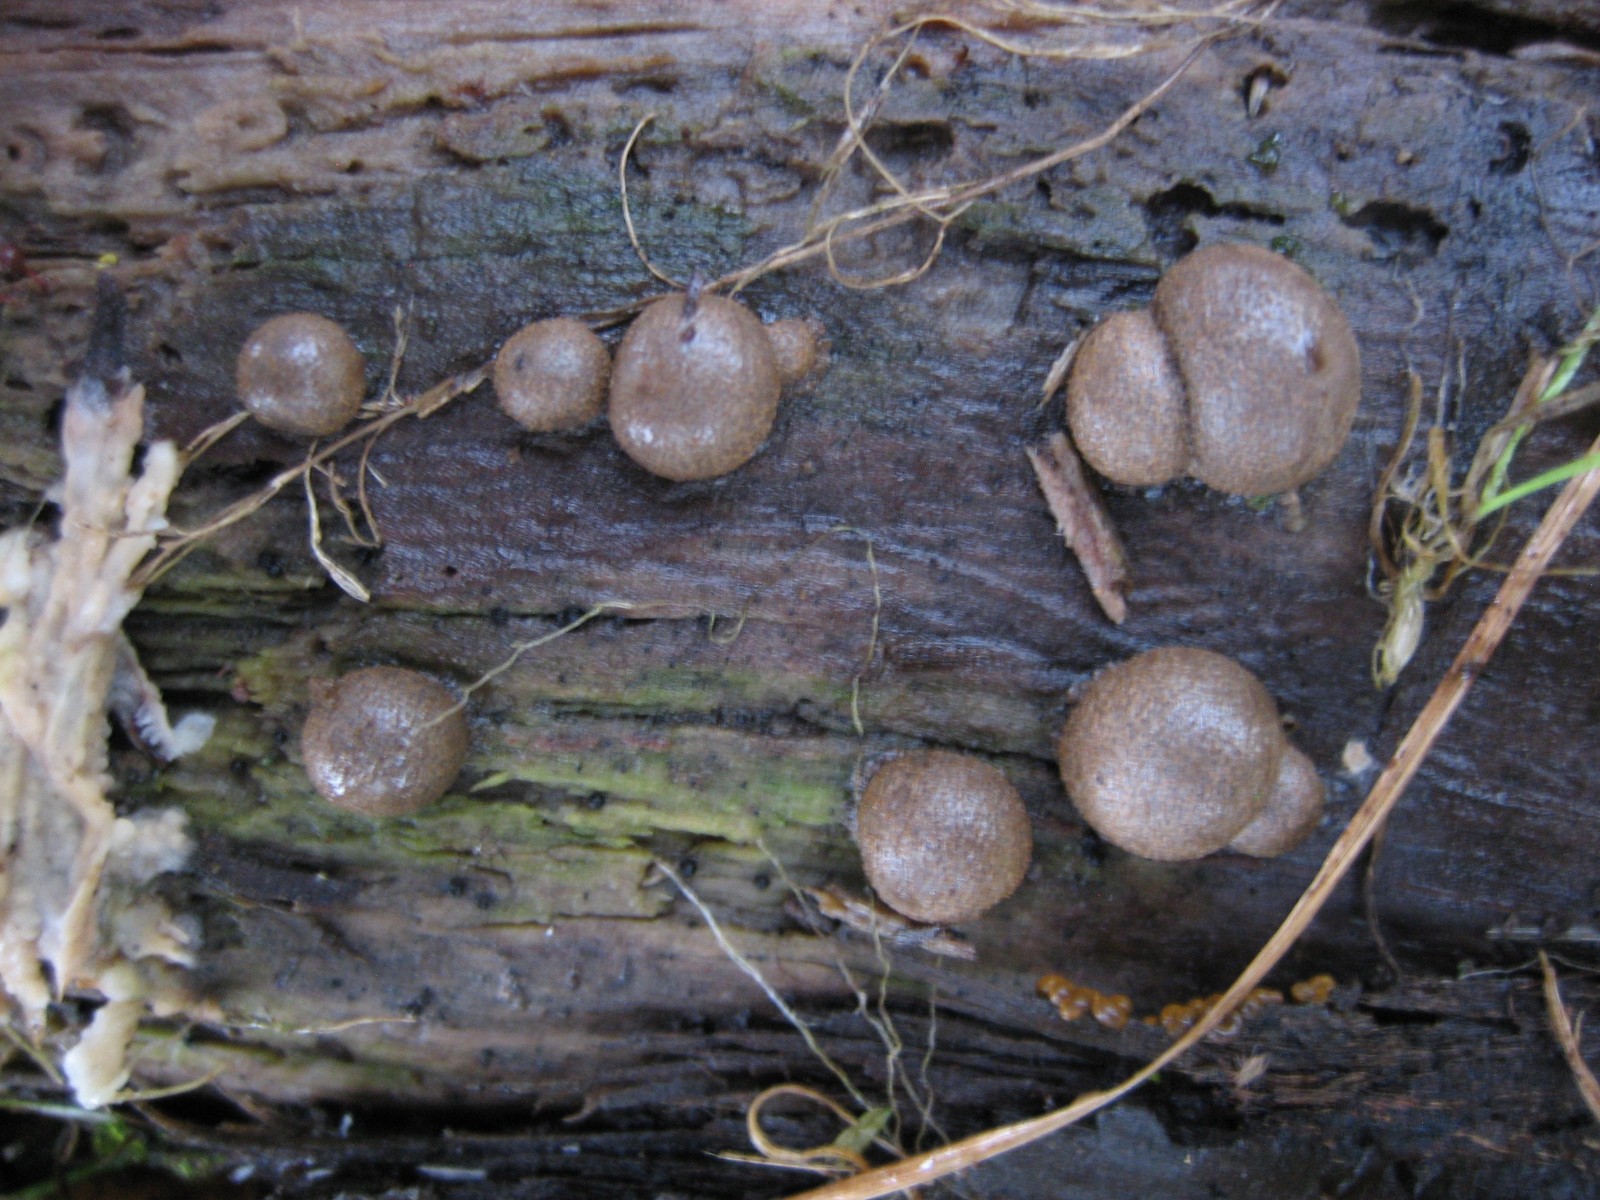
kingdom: Protozoa
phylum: Mycetozoa
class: Myxomycetes
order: Cribrariales
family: Tubiferaceae
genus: Lycogala
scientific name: Lycogala epidendrum
